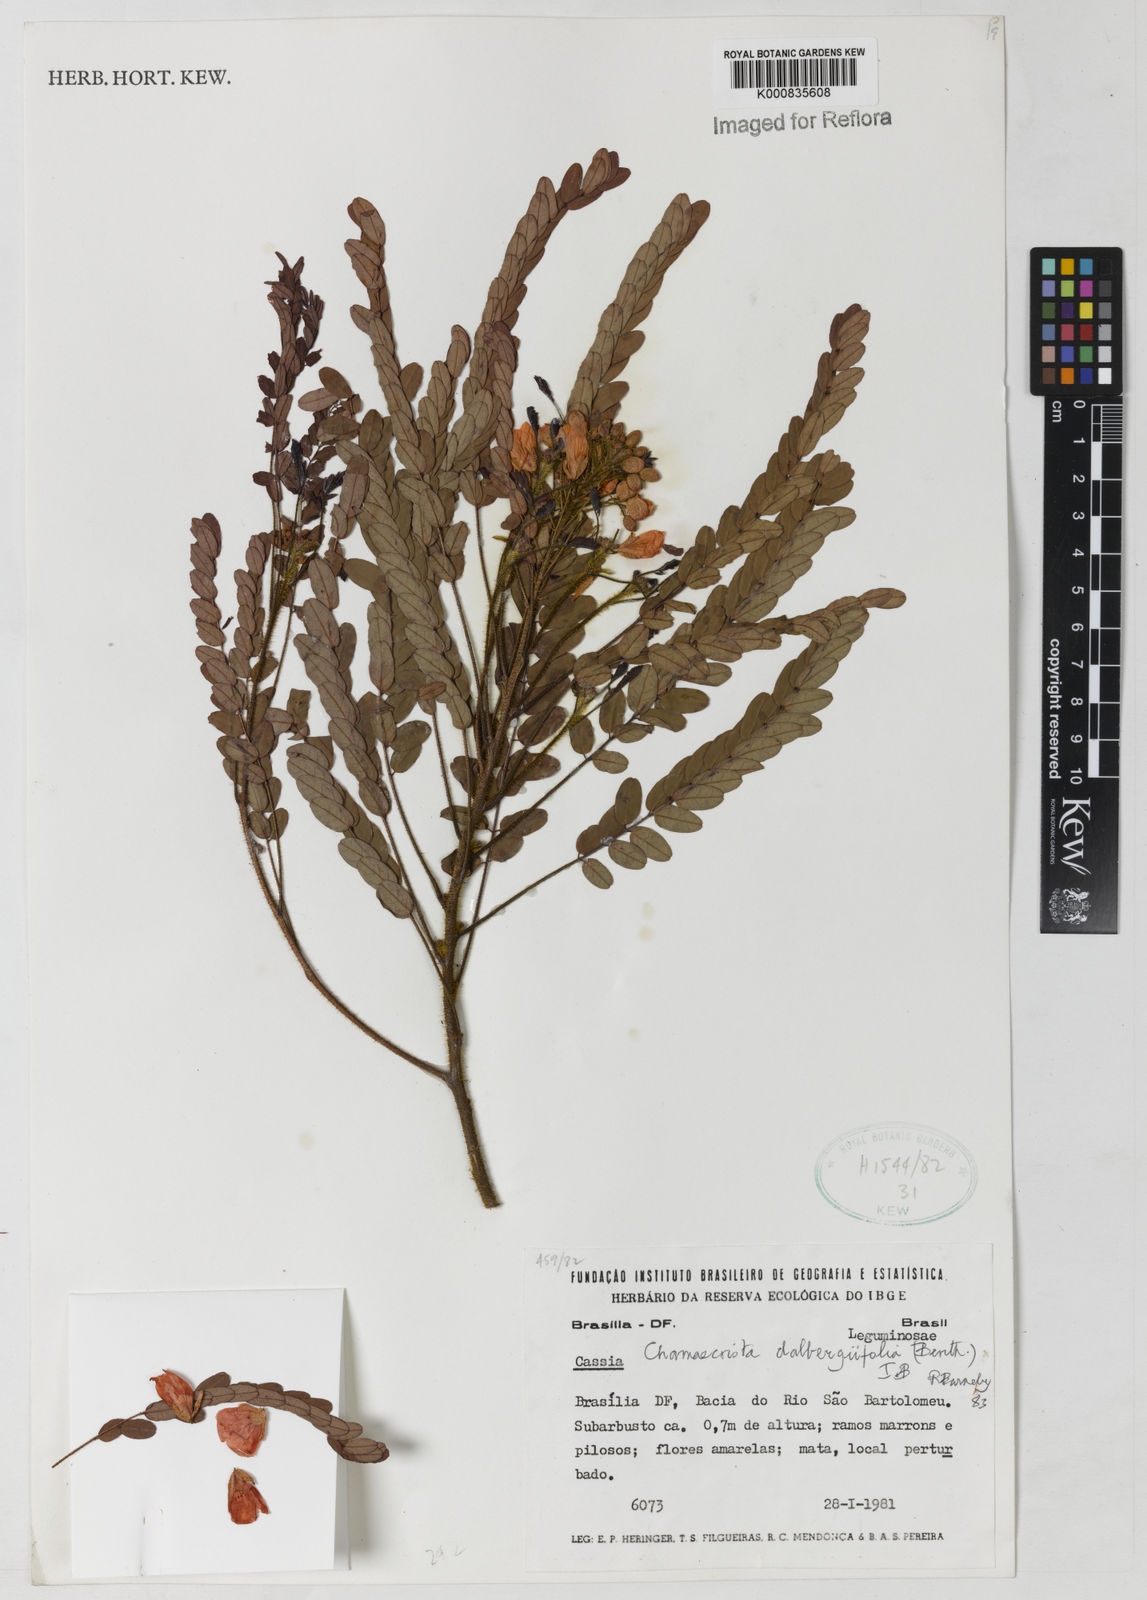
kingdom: Plantae
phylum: Tracheophyta
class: Magnoliopsida
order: Fabales
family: Fabaceae
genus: Chamaecrista
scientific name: Chamaecrista dalbergiifolia
